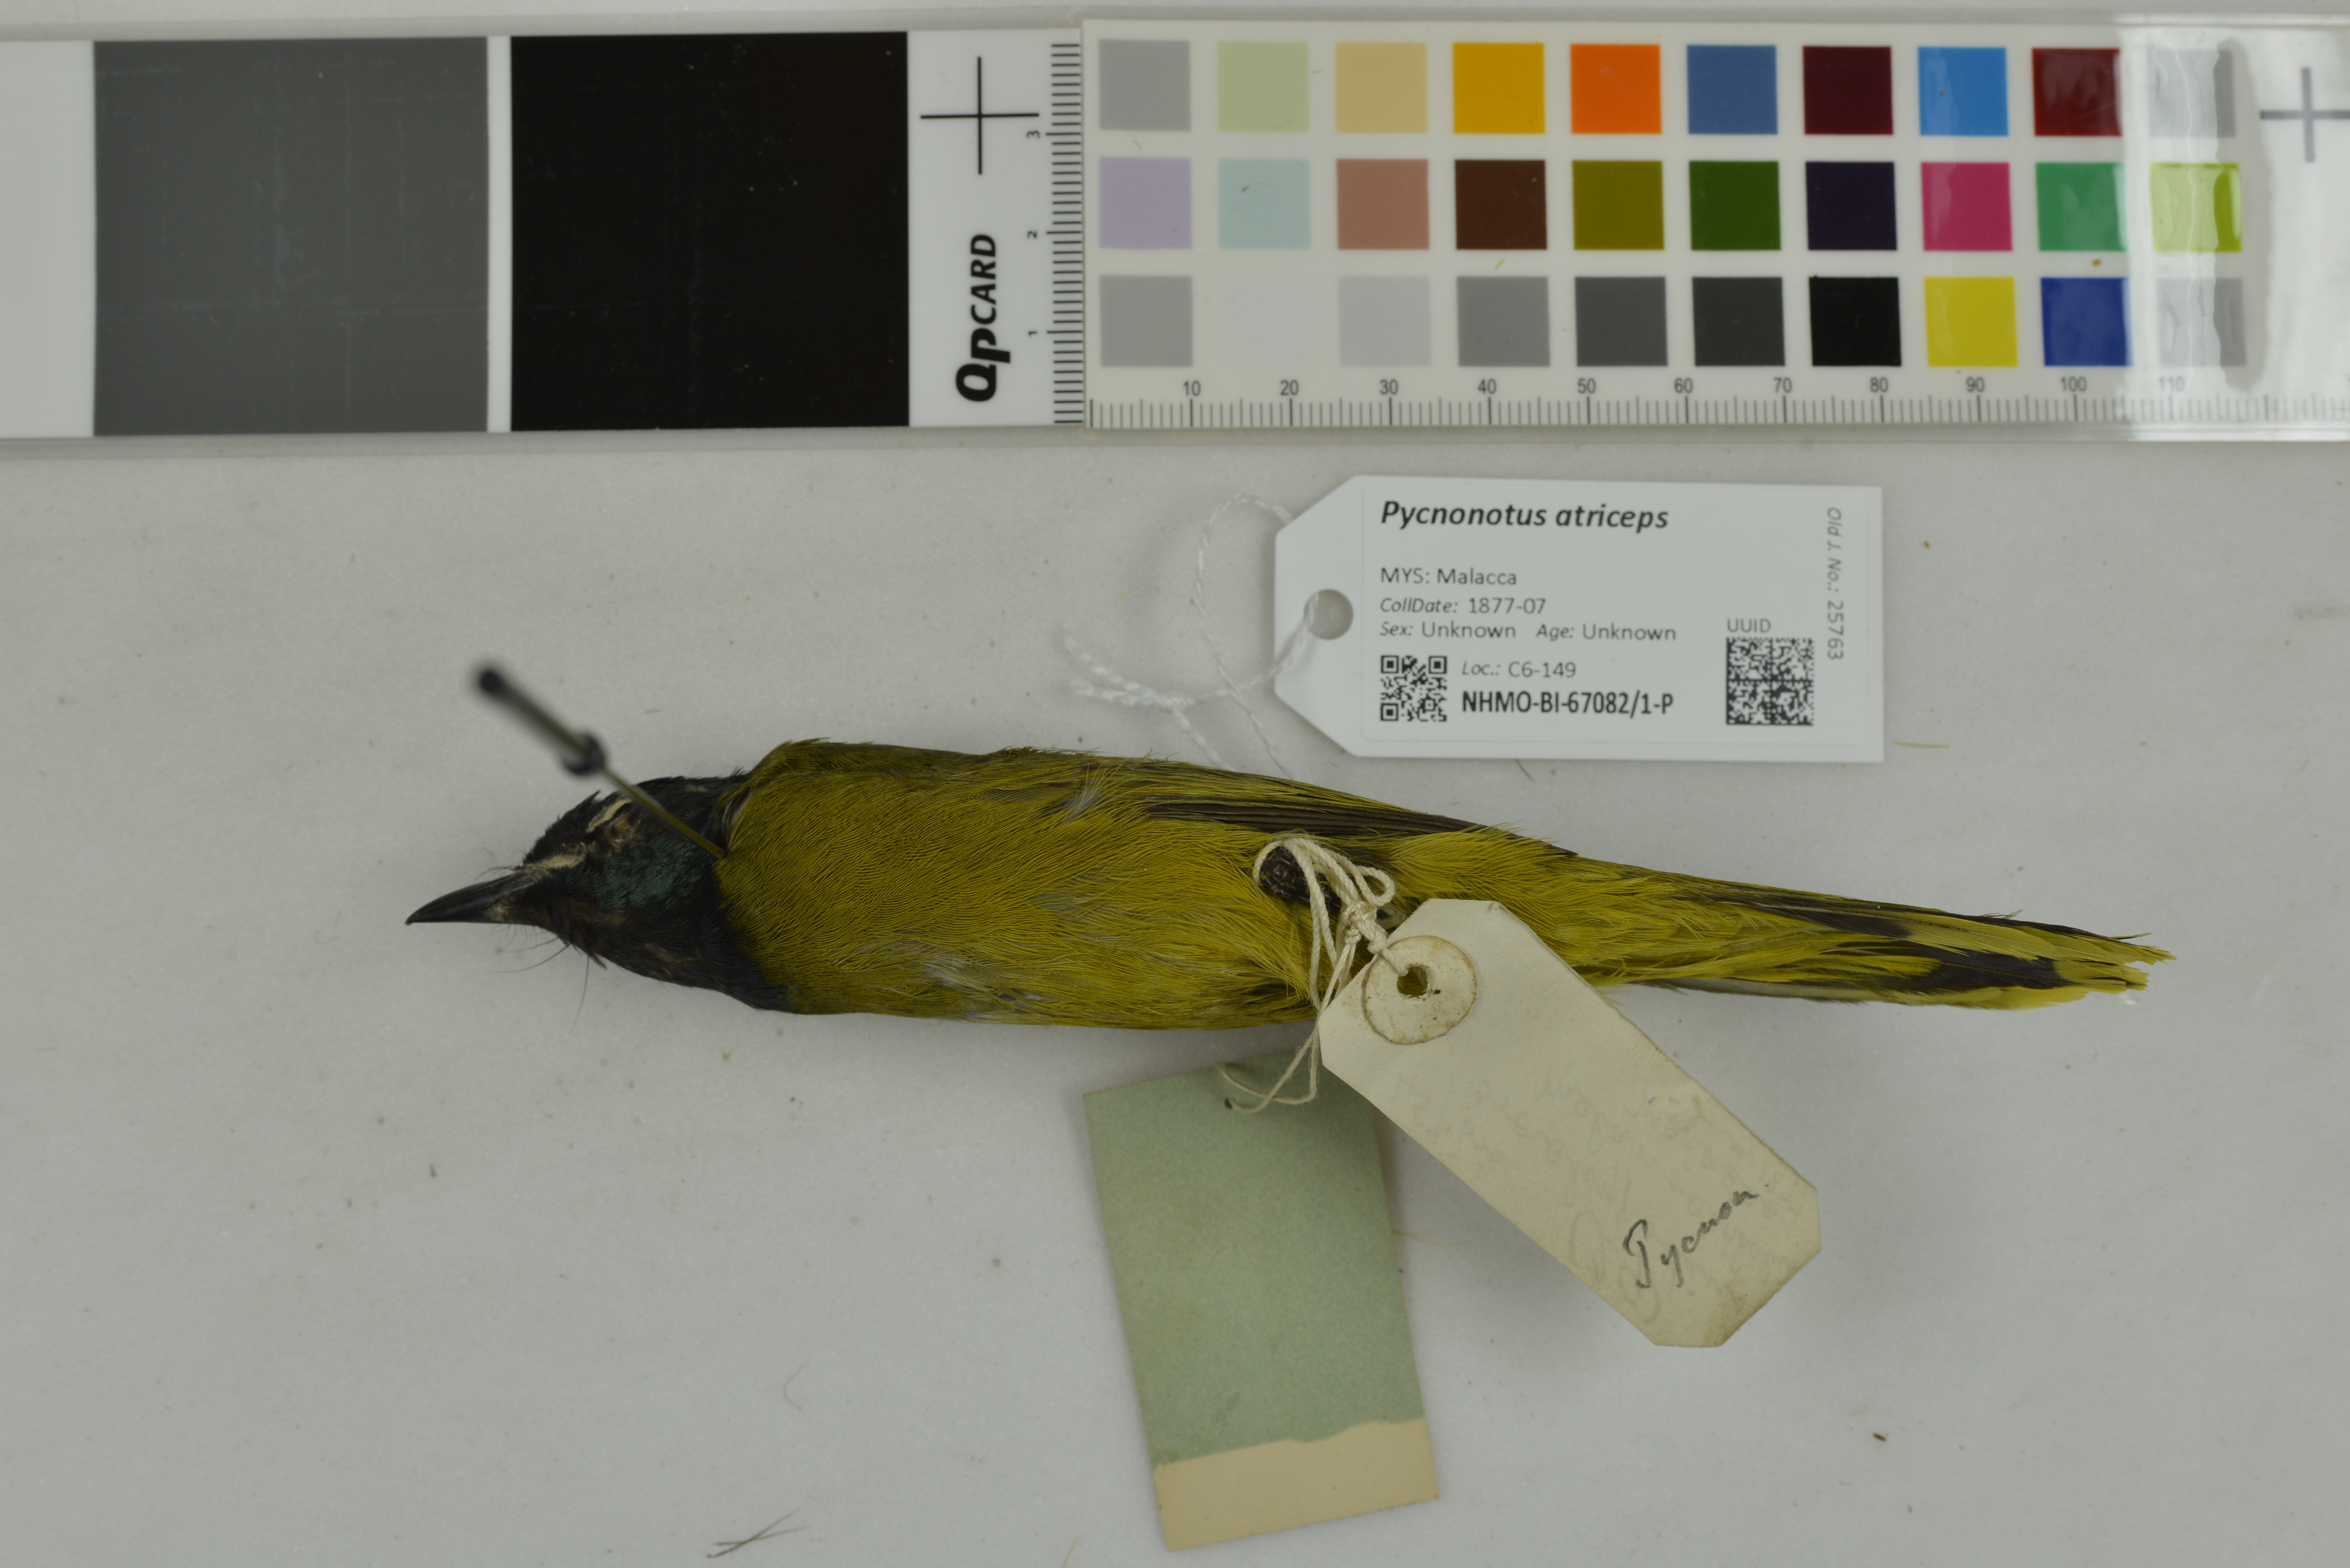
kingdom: Animalia
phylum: Chordata
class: Aves
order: Passeriformes
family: Pycnonotidae
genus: Brachypodius
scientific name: Brachypodius melanocephalos
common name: Black-headed bulbul
